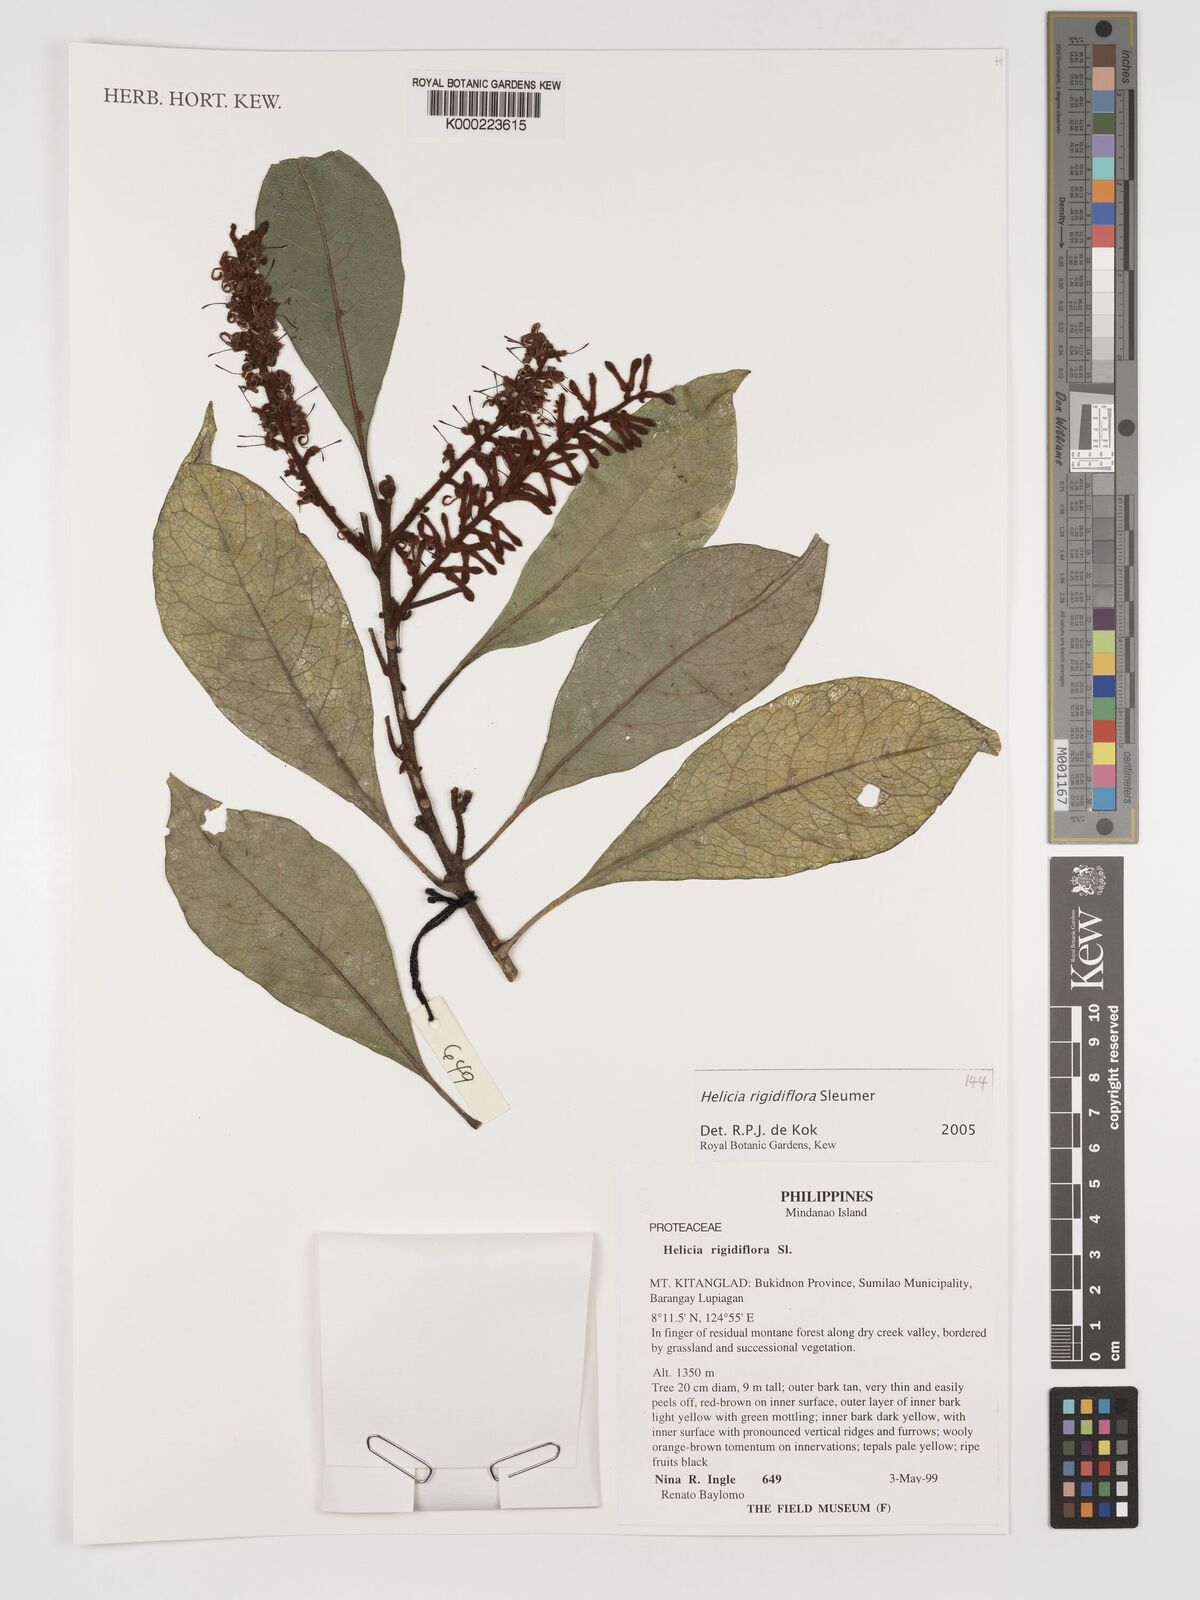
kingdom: Plantae
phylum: Tracheophyta
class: Magnoliopsida
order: Proteales
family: Proteaceae
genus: Helicia
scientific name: Helicia rigidiflora
